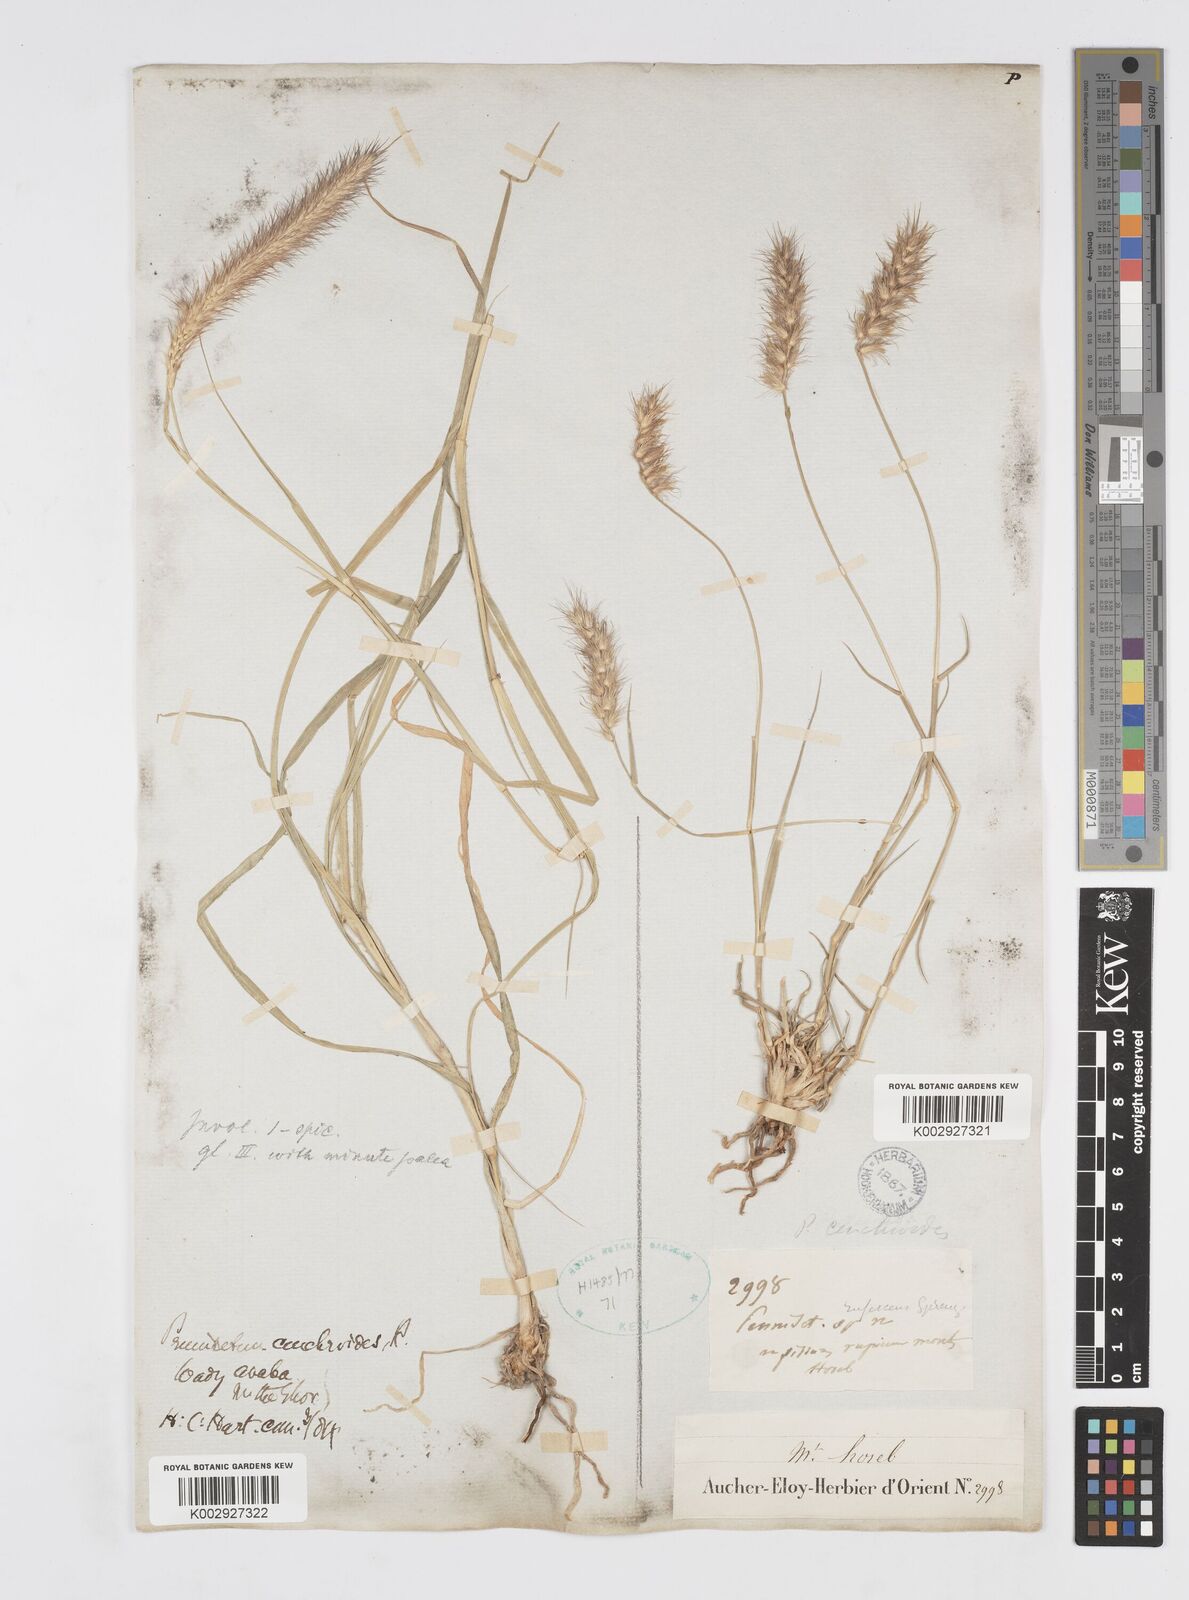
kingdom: Plantae
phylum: Tracheophyta
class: Liliopsida
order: Poales
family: Poaceae
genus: Cenchrus
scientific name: Cenchrus ciliaris
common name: Buffelgrass
